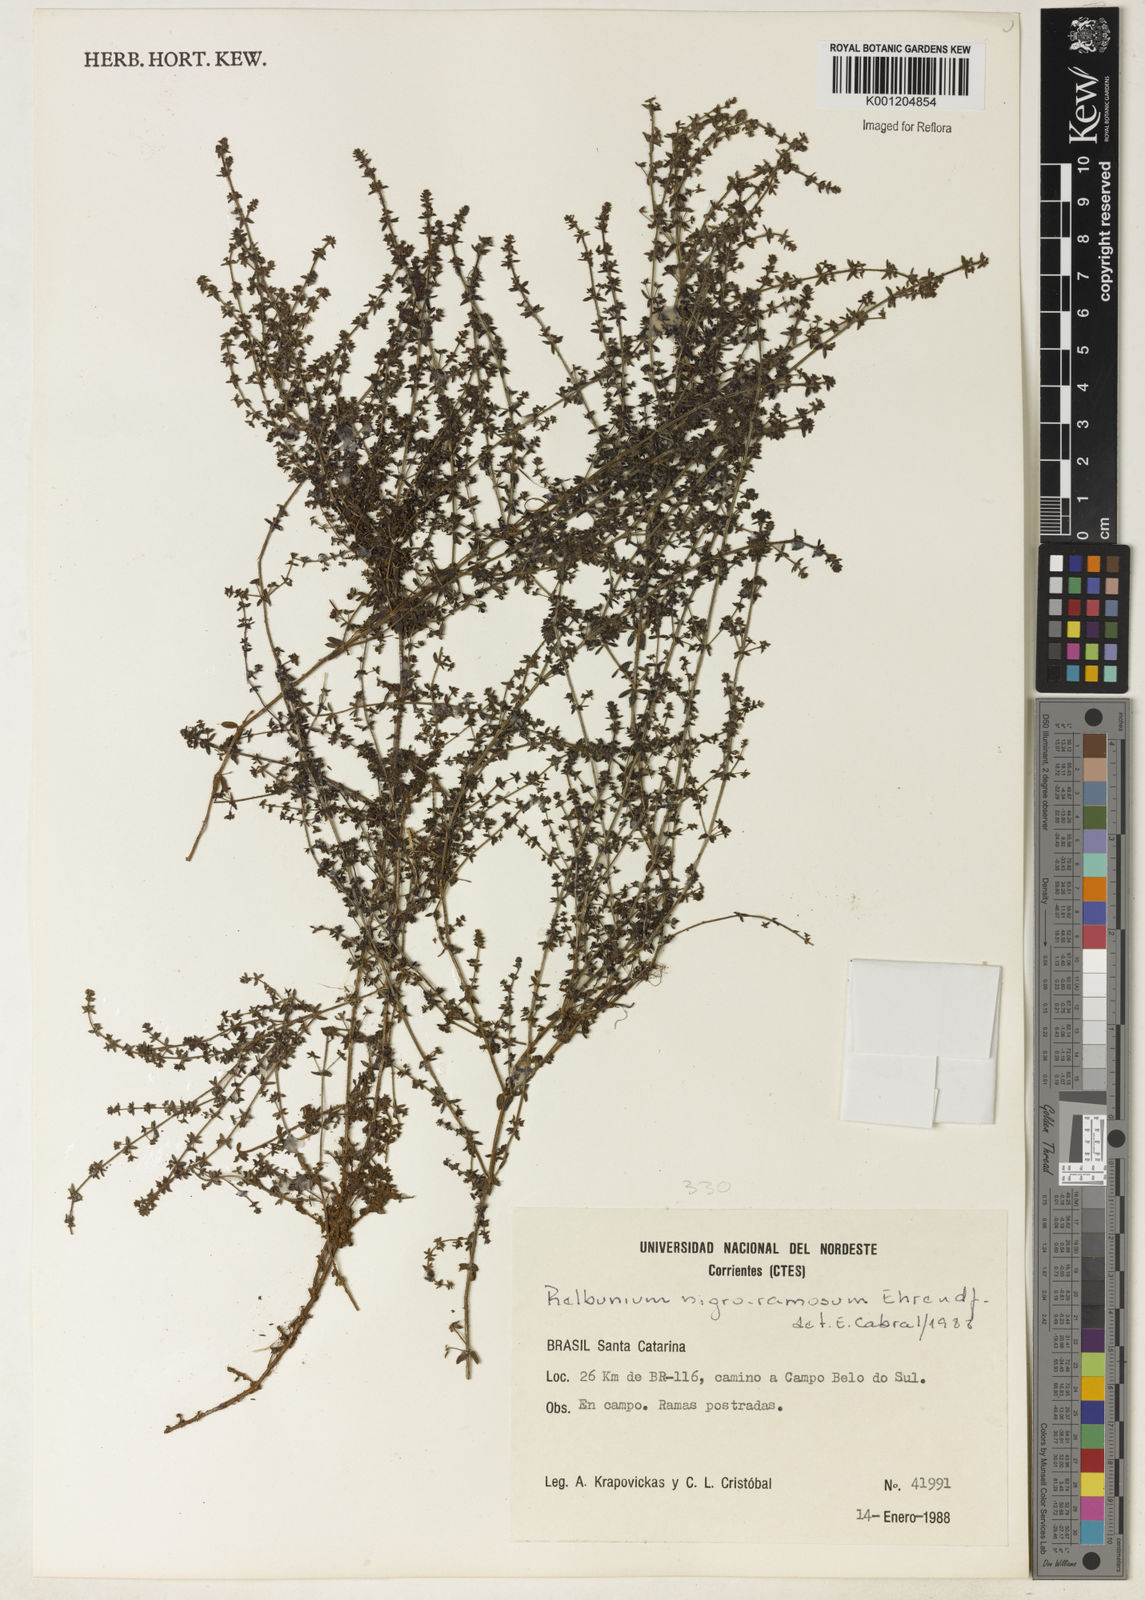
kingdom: Plantae
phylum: Tracheophyta
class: Magnoliopsida
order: Gentianales
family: Rubiaceae
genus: Galium
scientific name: Galium megapotamicum
